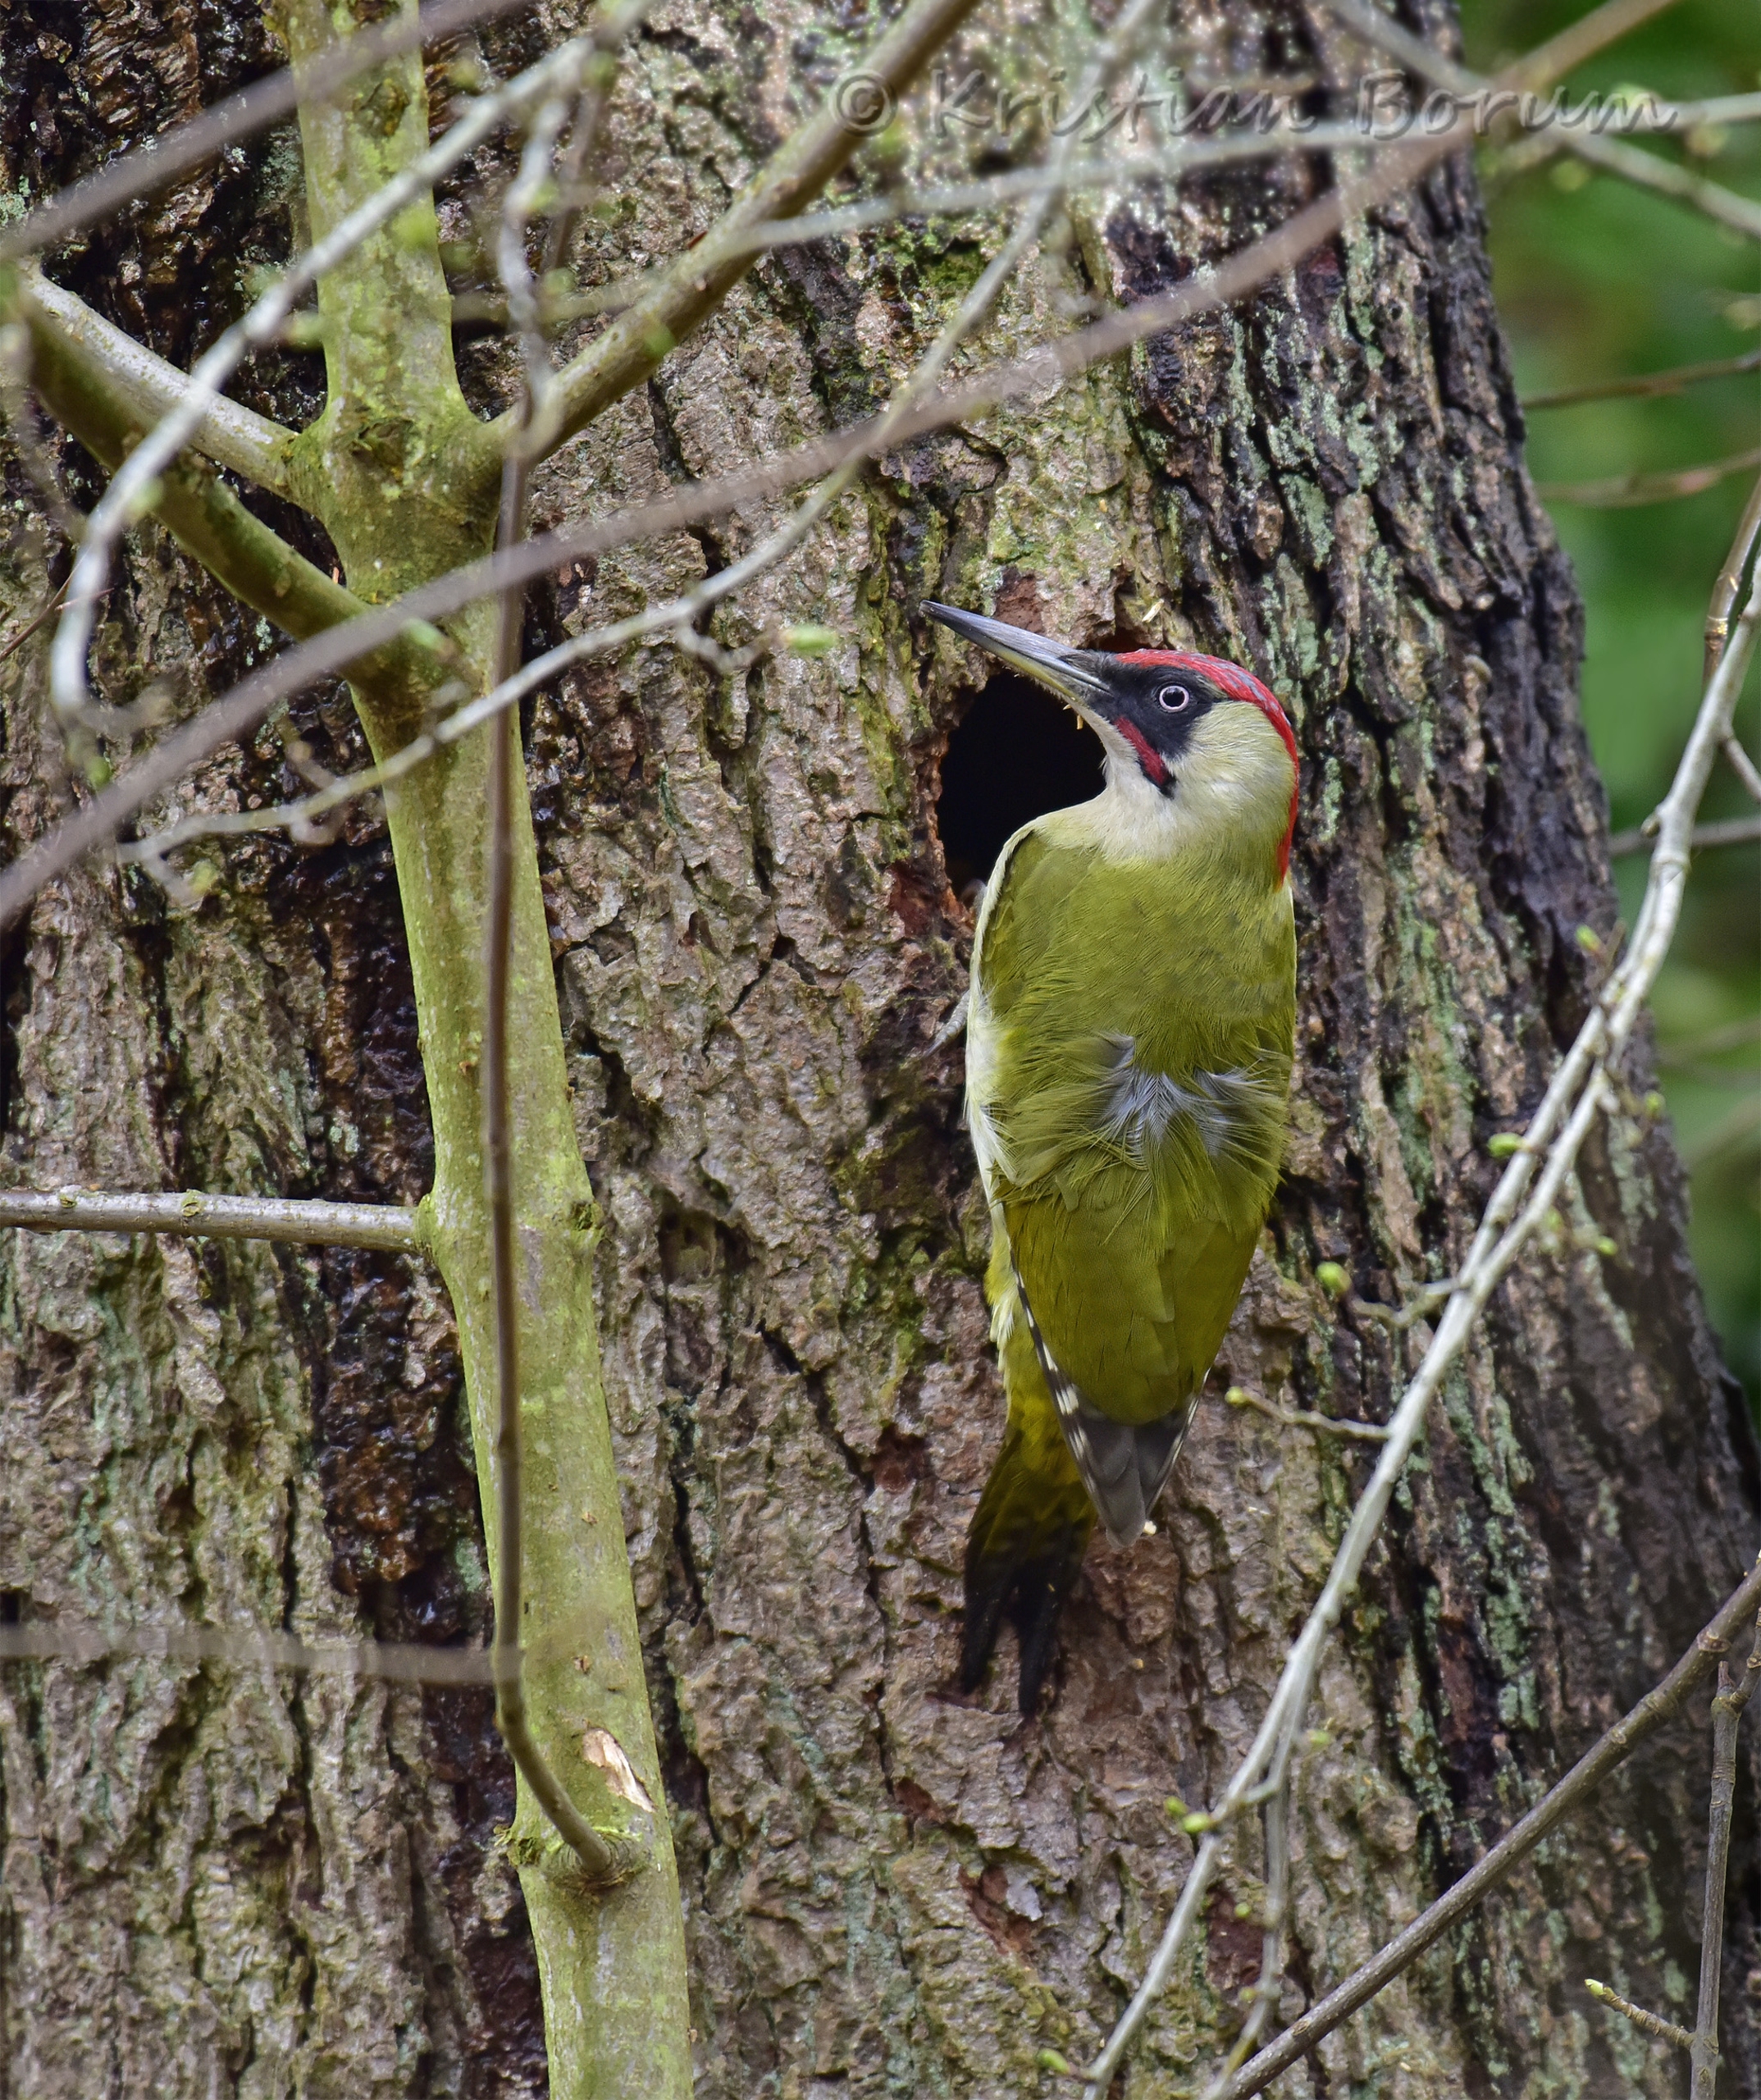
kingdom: Animalia
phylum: Chordata
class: Aves
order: Piciformes
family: Picidae
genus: Picus
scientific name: Picus viridis
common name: Grønspætte
